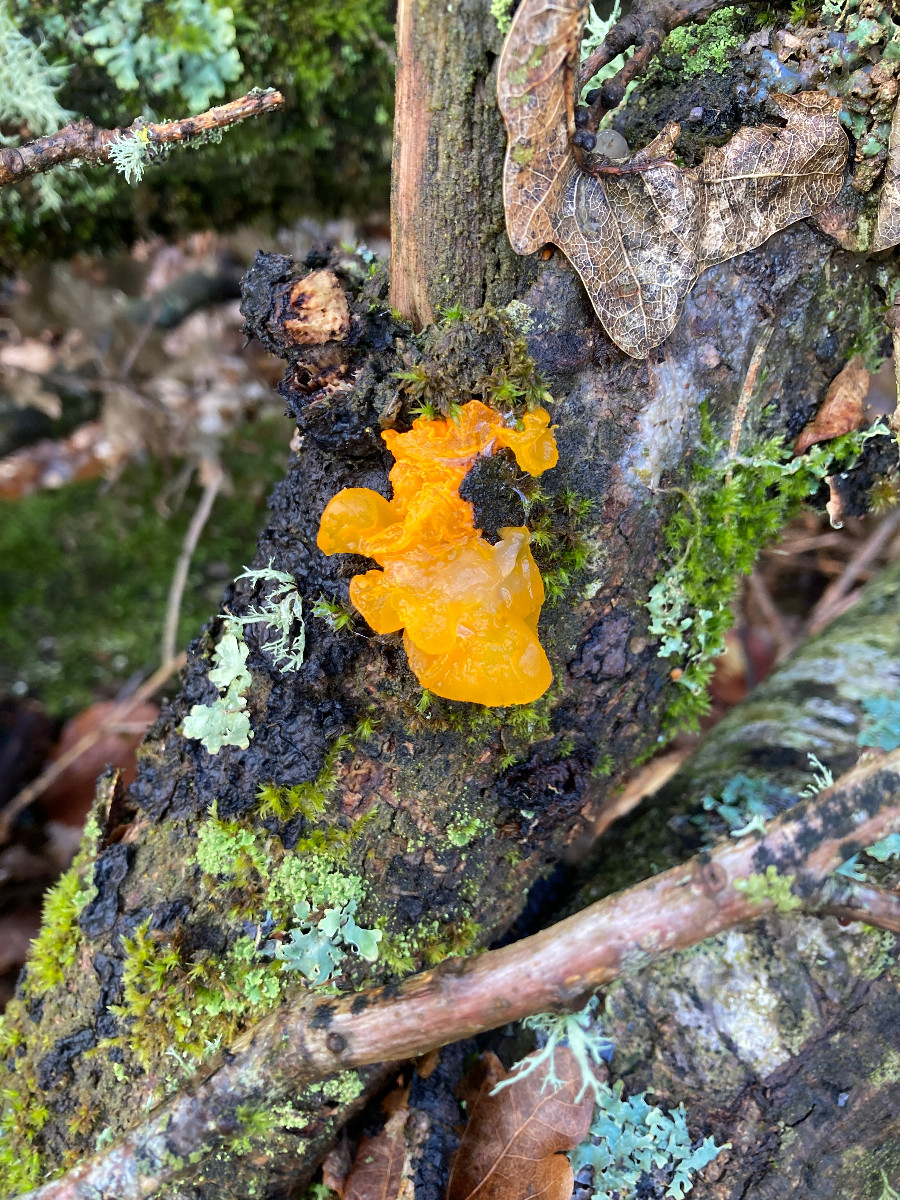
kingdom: Fungi
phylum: Basidiomycota
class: Tremellomycetes
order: Tremellales
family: Tremellaceae
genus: Tremella
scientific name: Tremella mesenterica
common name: gul bævresvamp
